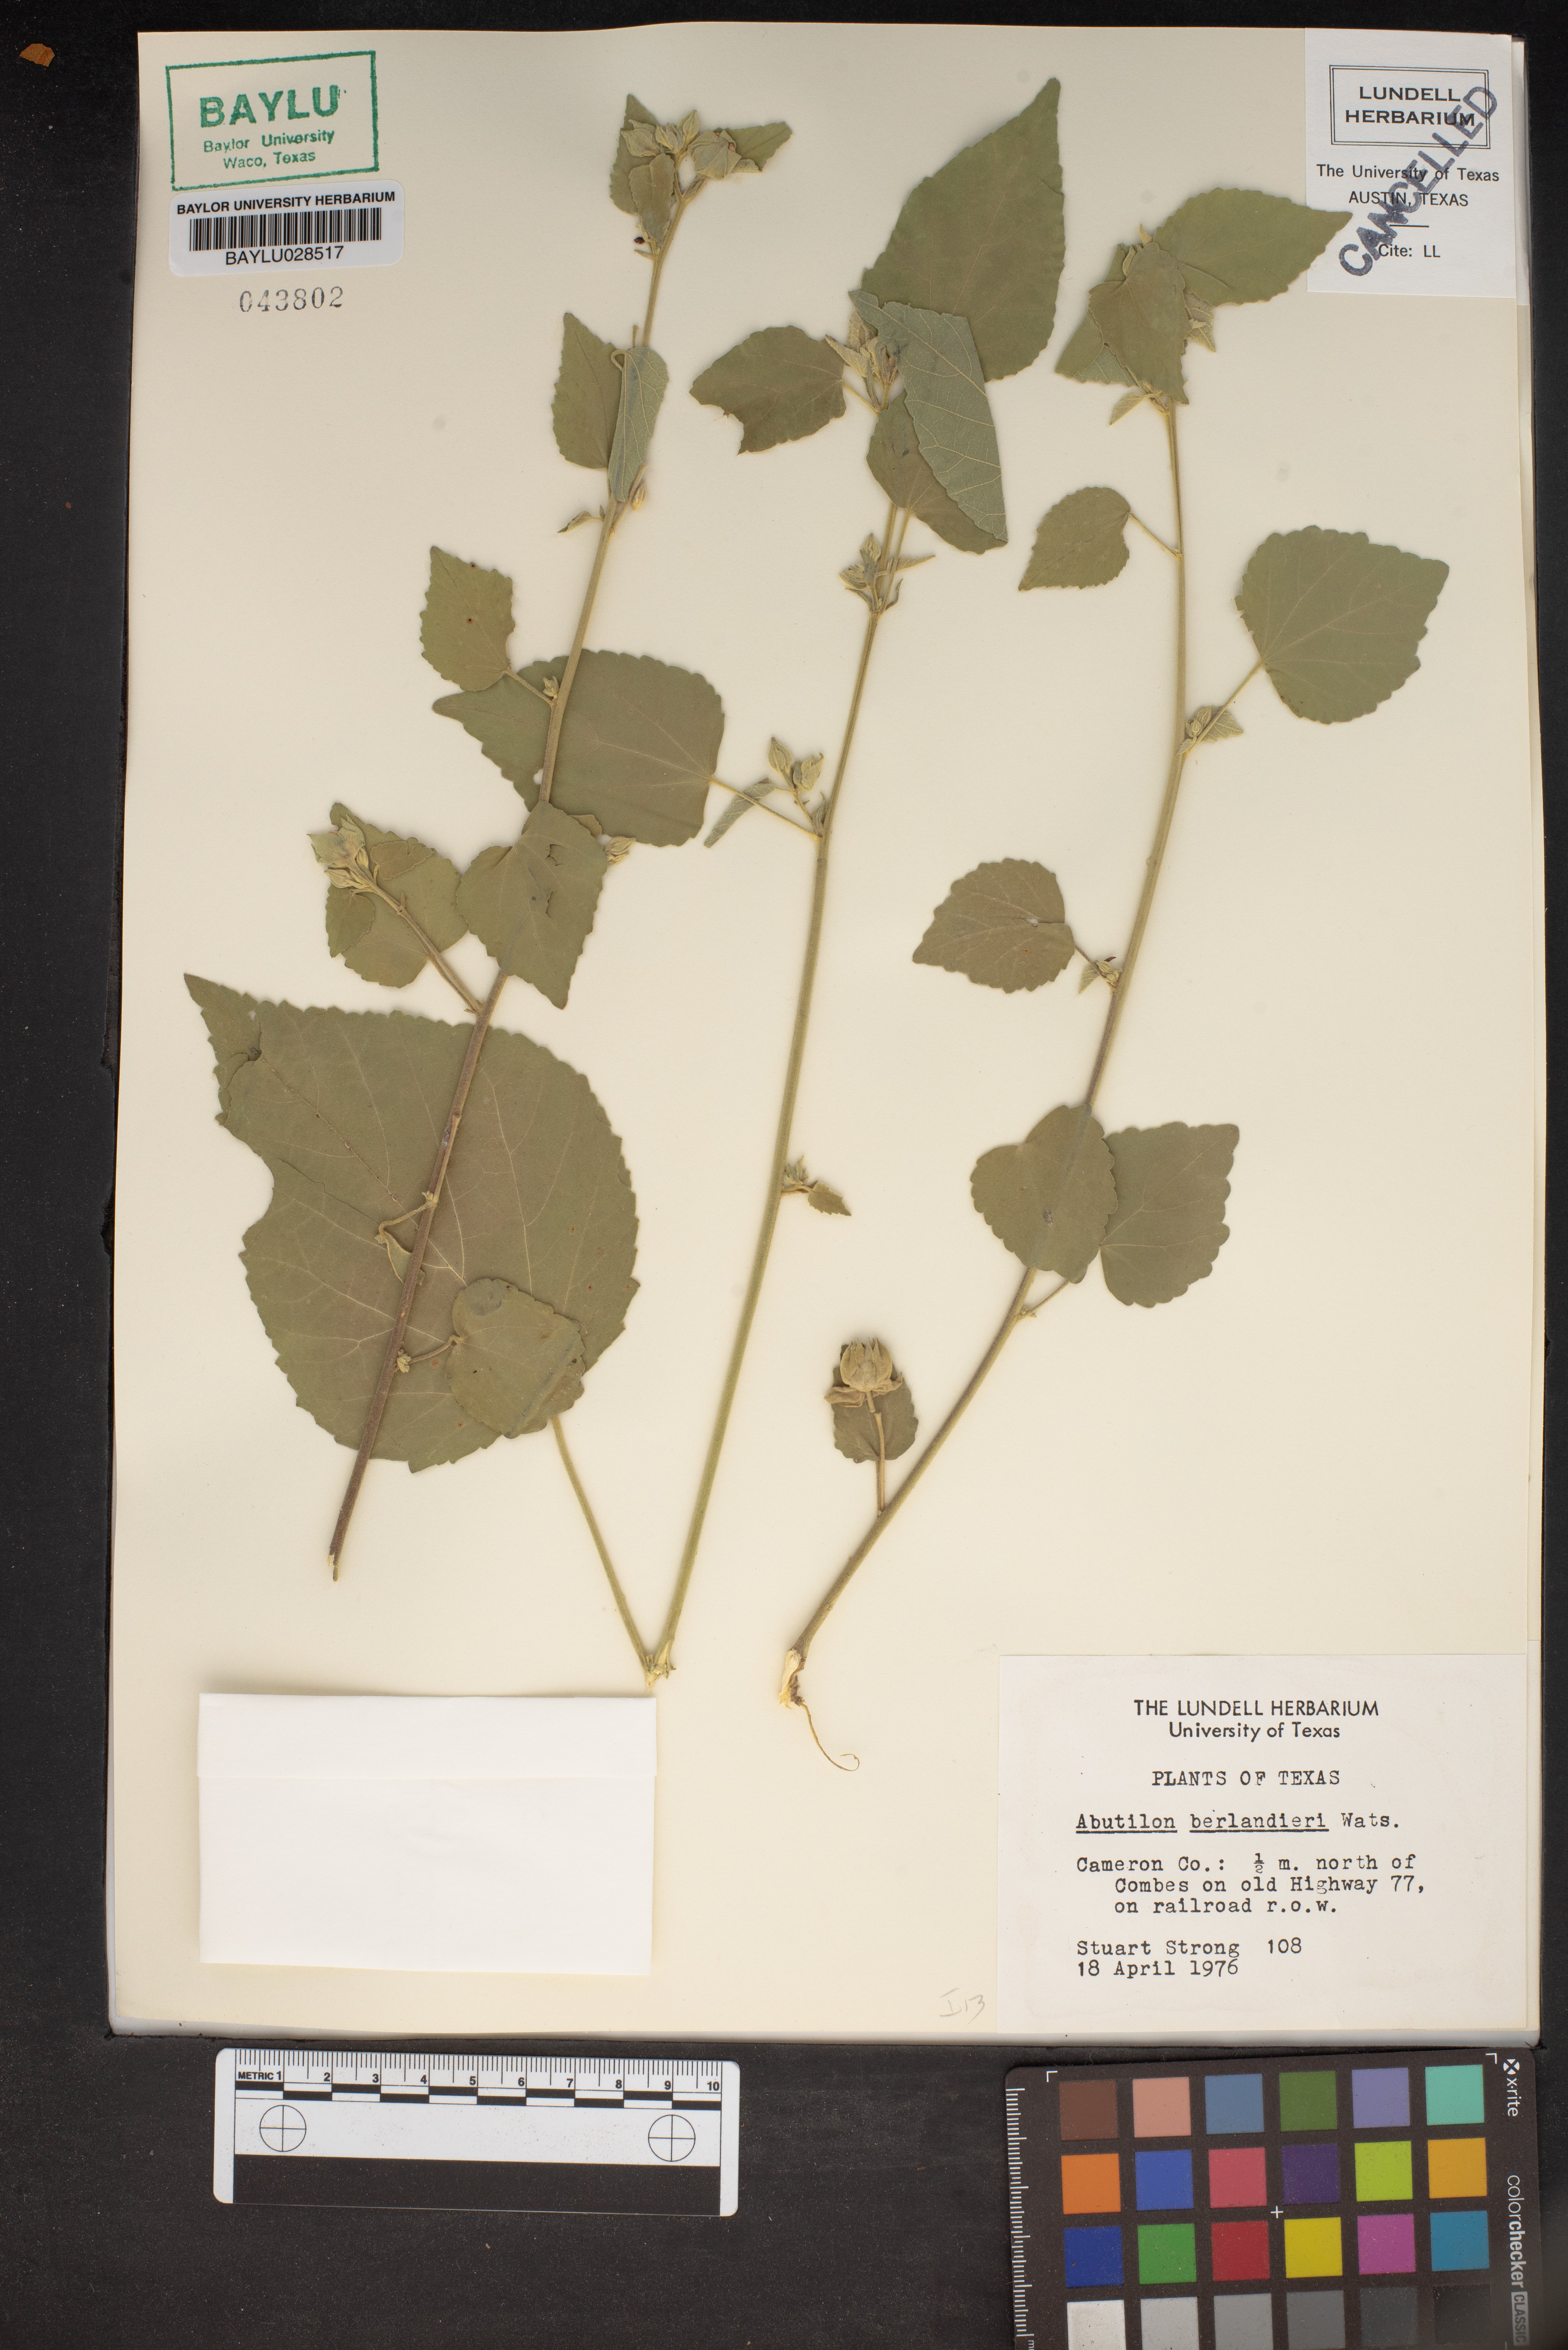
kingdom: Plantae
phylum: Tracheophyta
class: Magnoliopsida
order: Malvales
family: Malvaceae
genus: Abutilon
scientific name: Abutilon berlandieri
